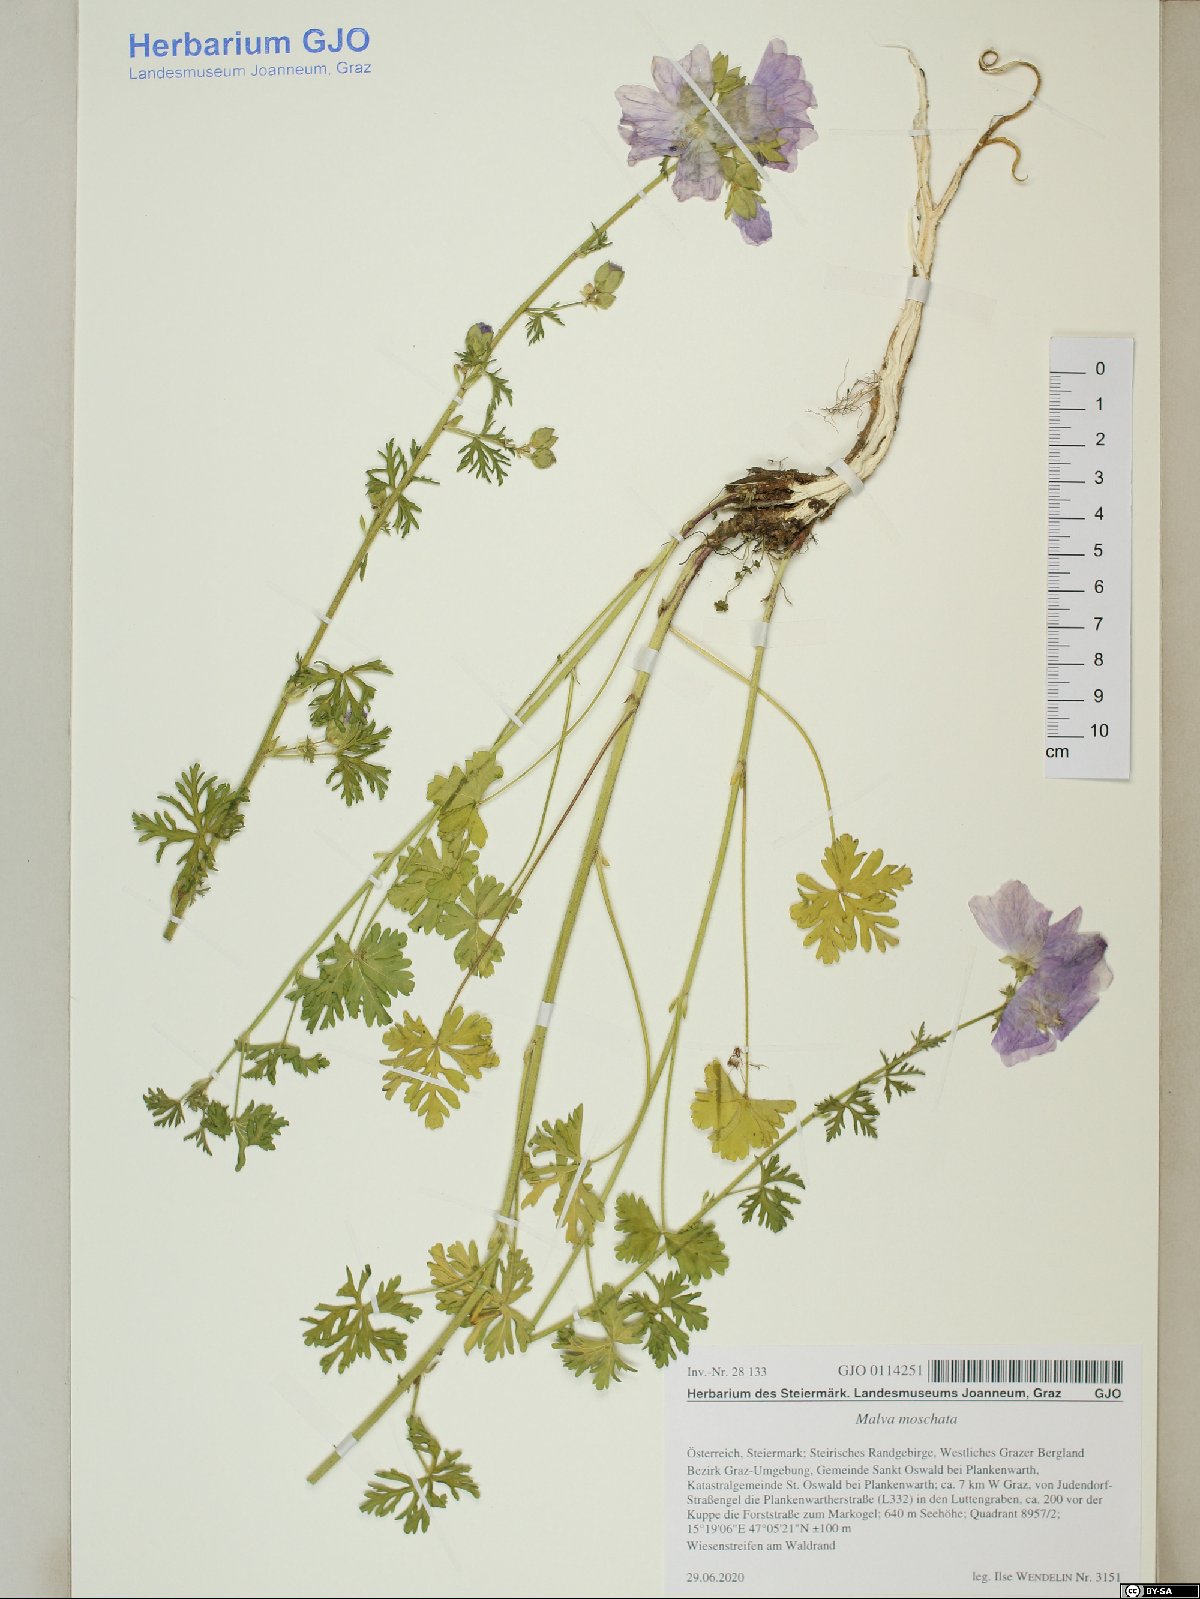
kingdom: Plantae
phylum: Tracheophyta
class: Magnoliopsida
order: Malvales
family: Malvaceae
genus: Malva
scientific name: Malva moschata
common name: Musk mallow
